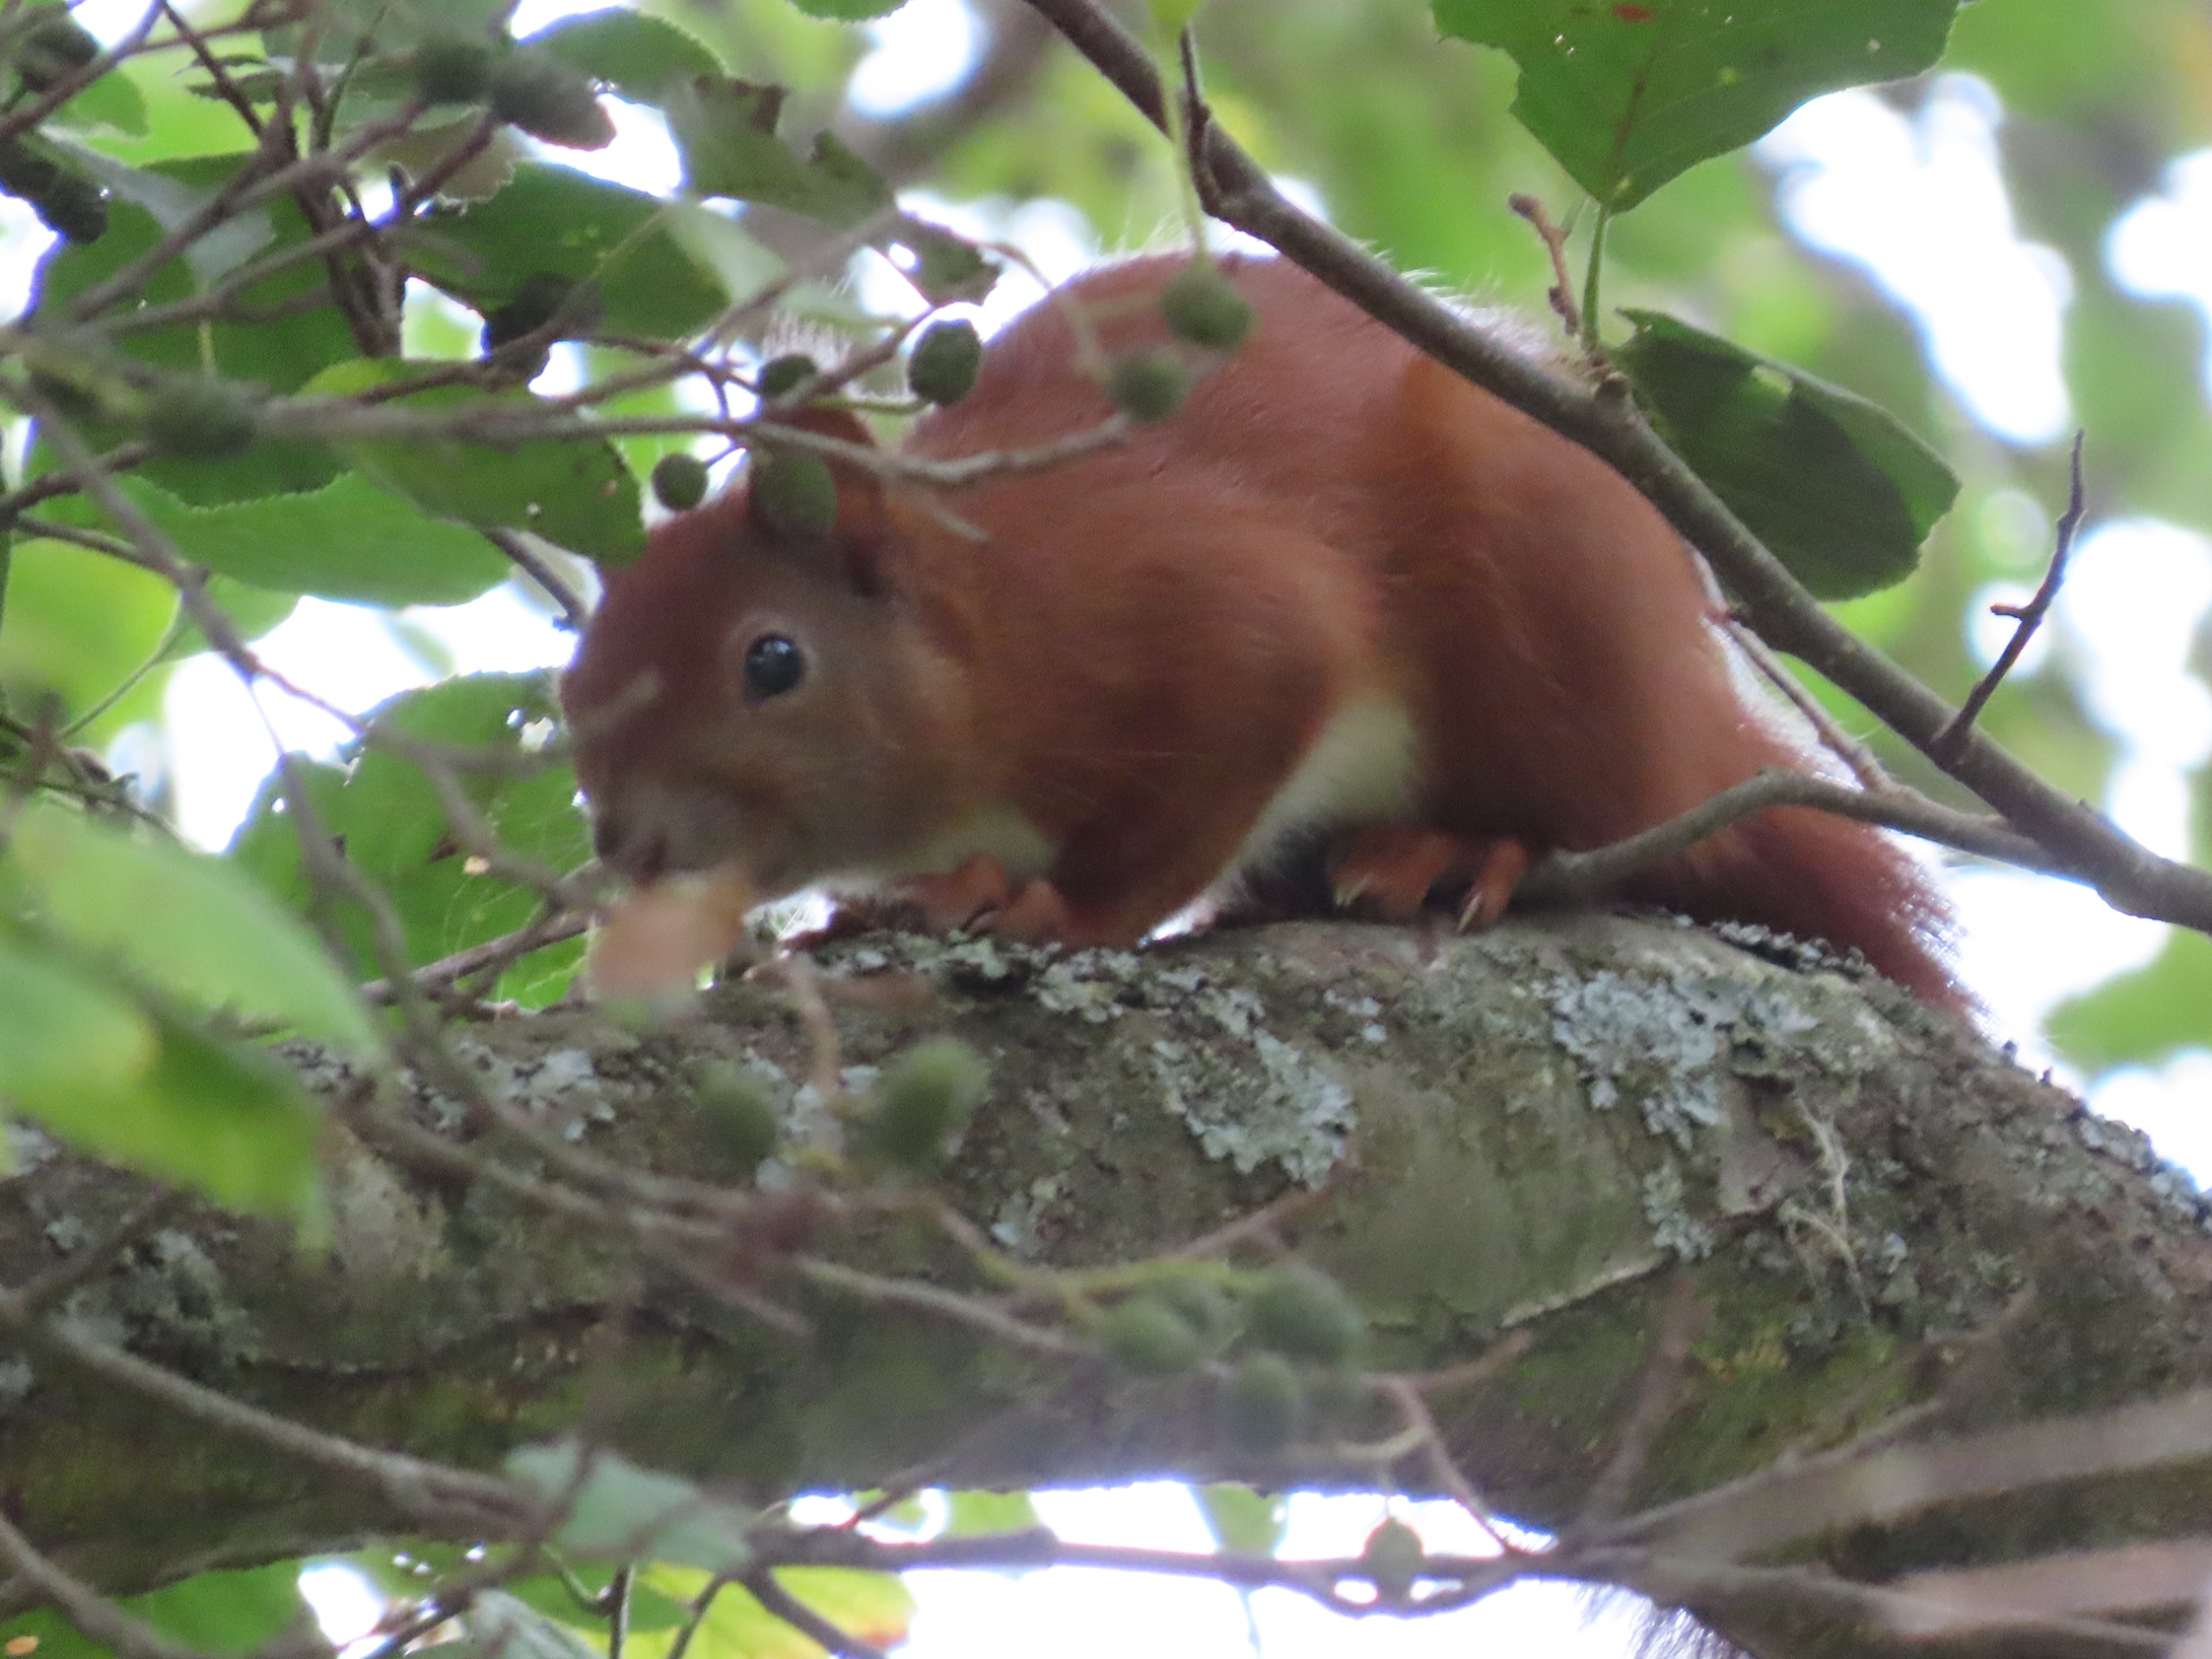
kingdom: Animalia
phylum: Chordata
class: Mammalia
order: Rodentia
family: Sciuridae
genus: Sciurus
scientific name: Sciurus vulgaris
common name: Egern
